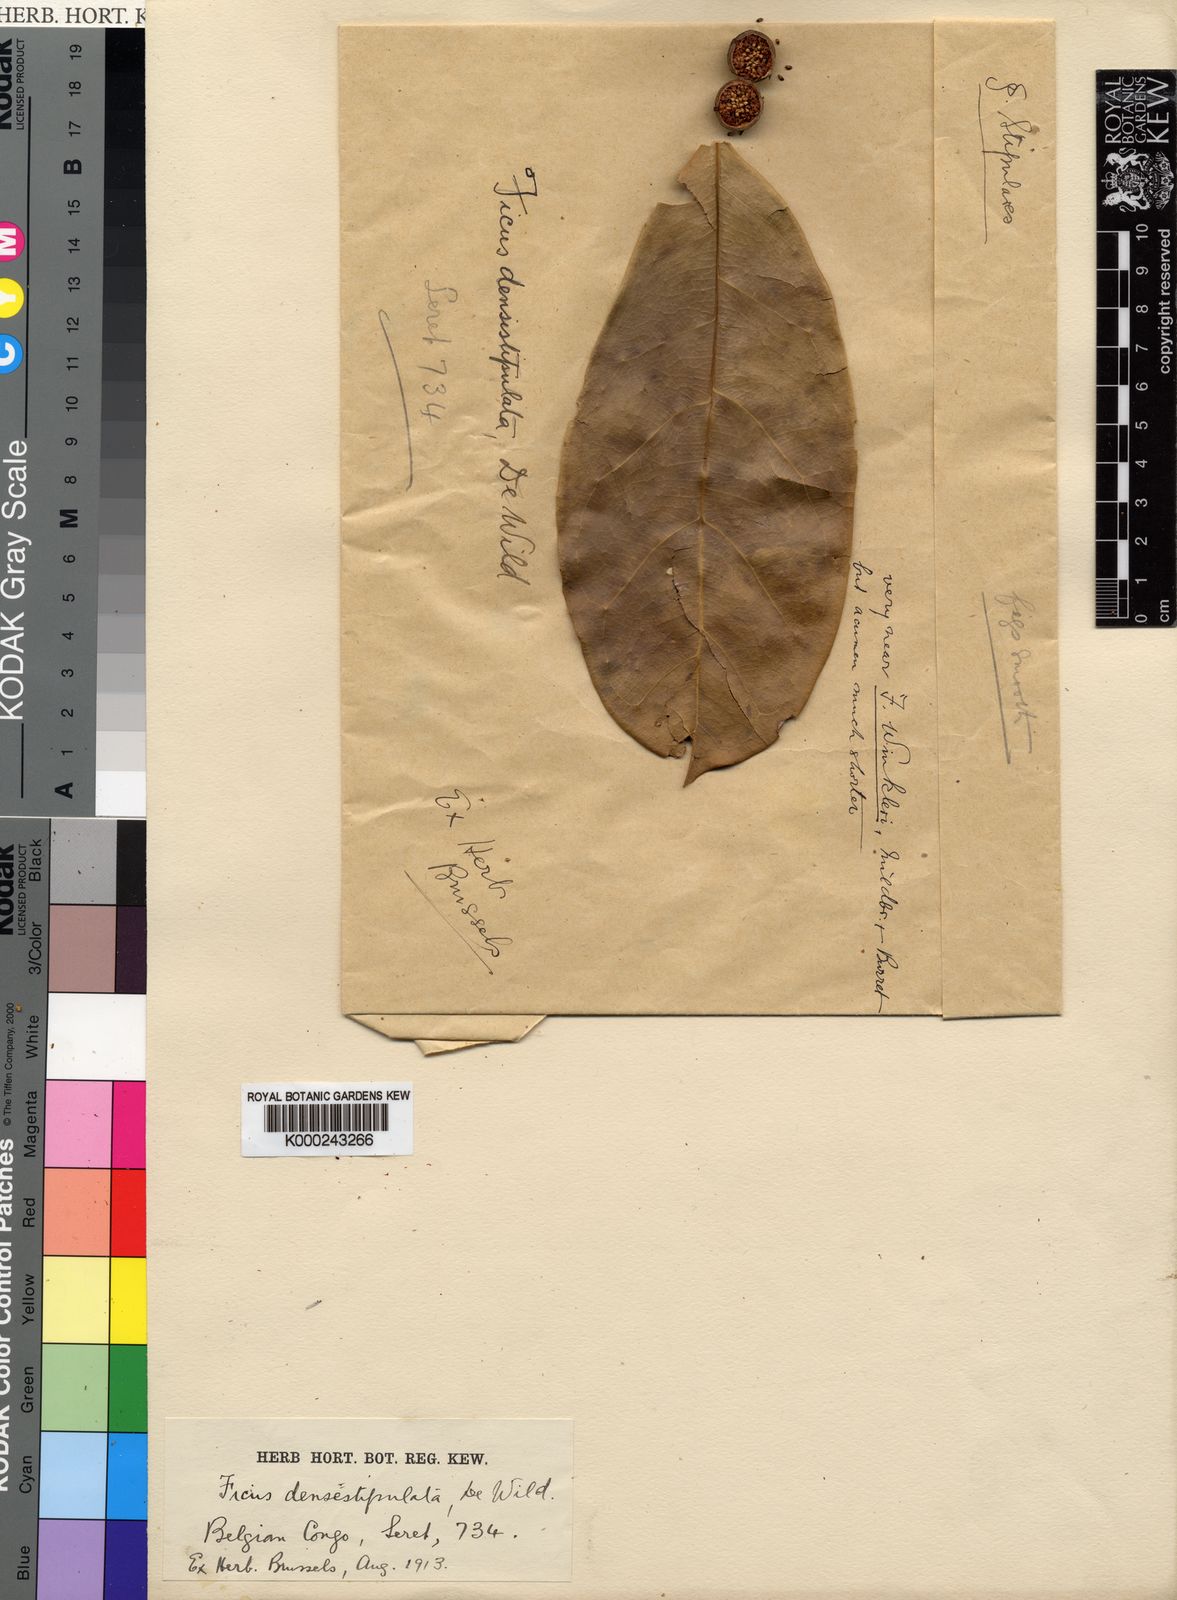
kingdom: Plantae
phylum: Tracheophyta
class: Magnoliopsida
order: Rosales
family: Moraceae
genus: Ficus
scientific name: Ficus densistipulata
